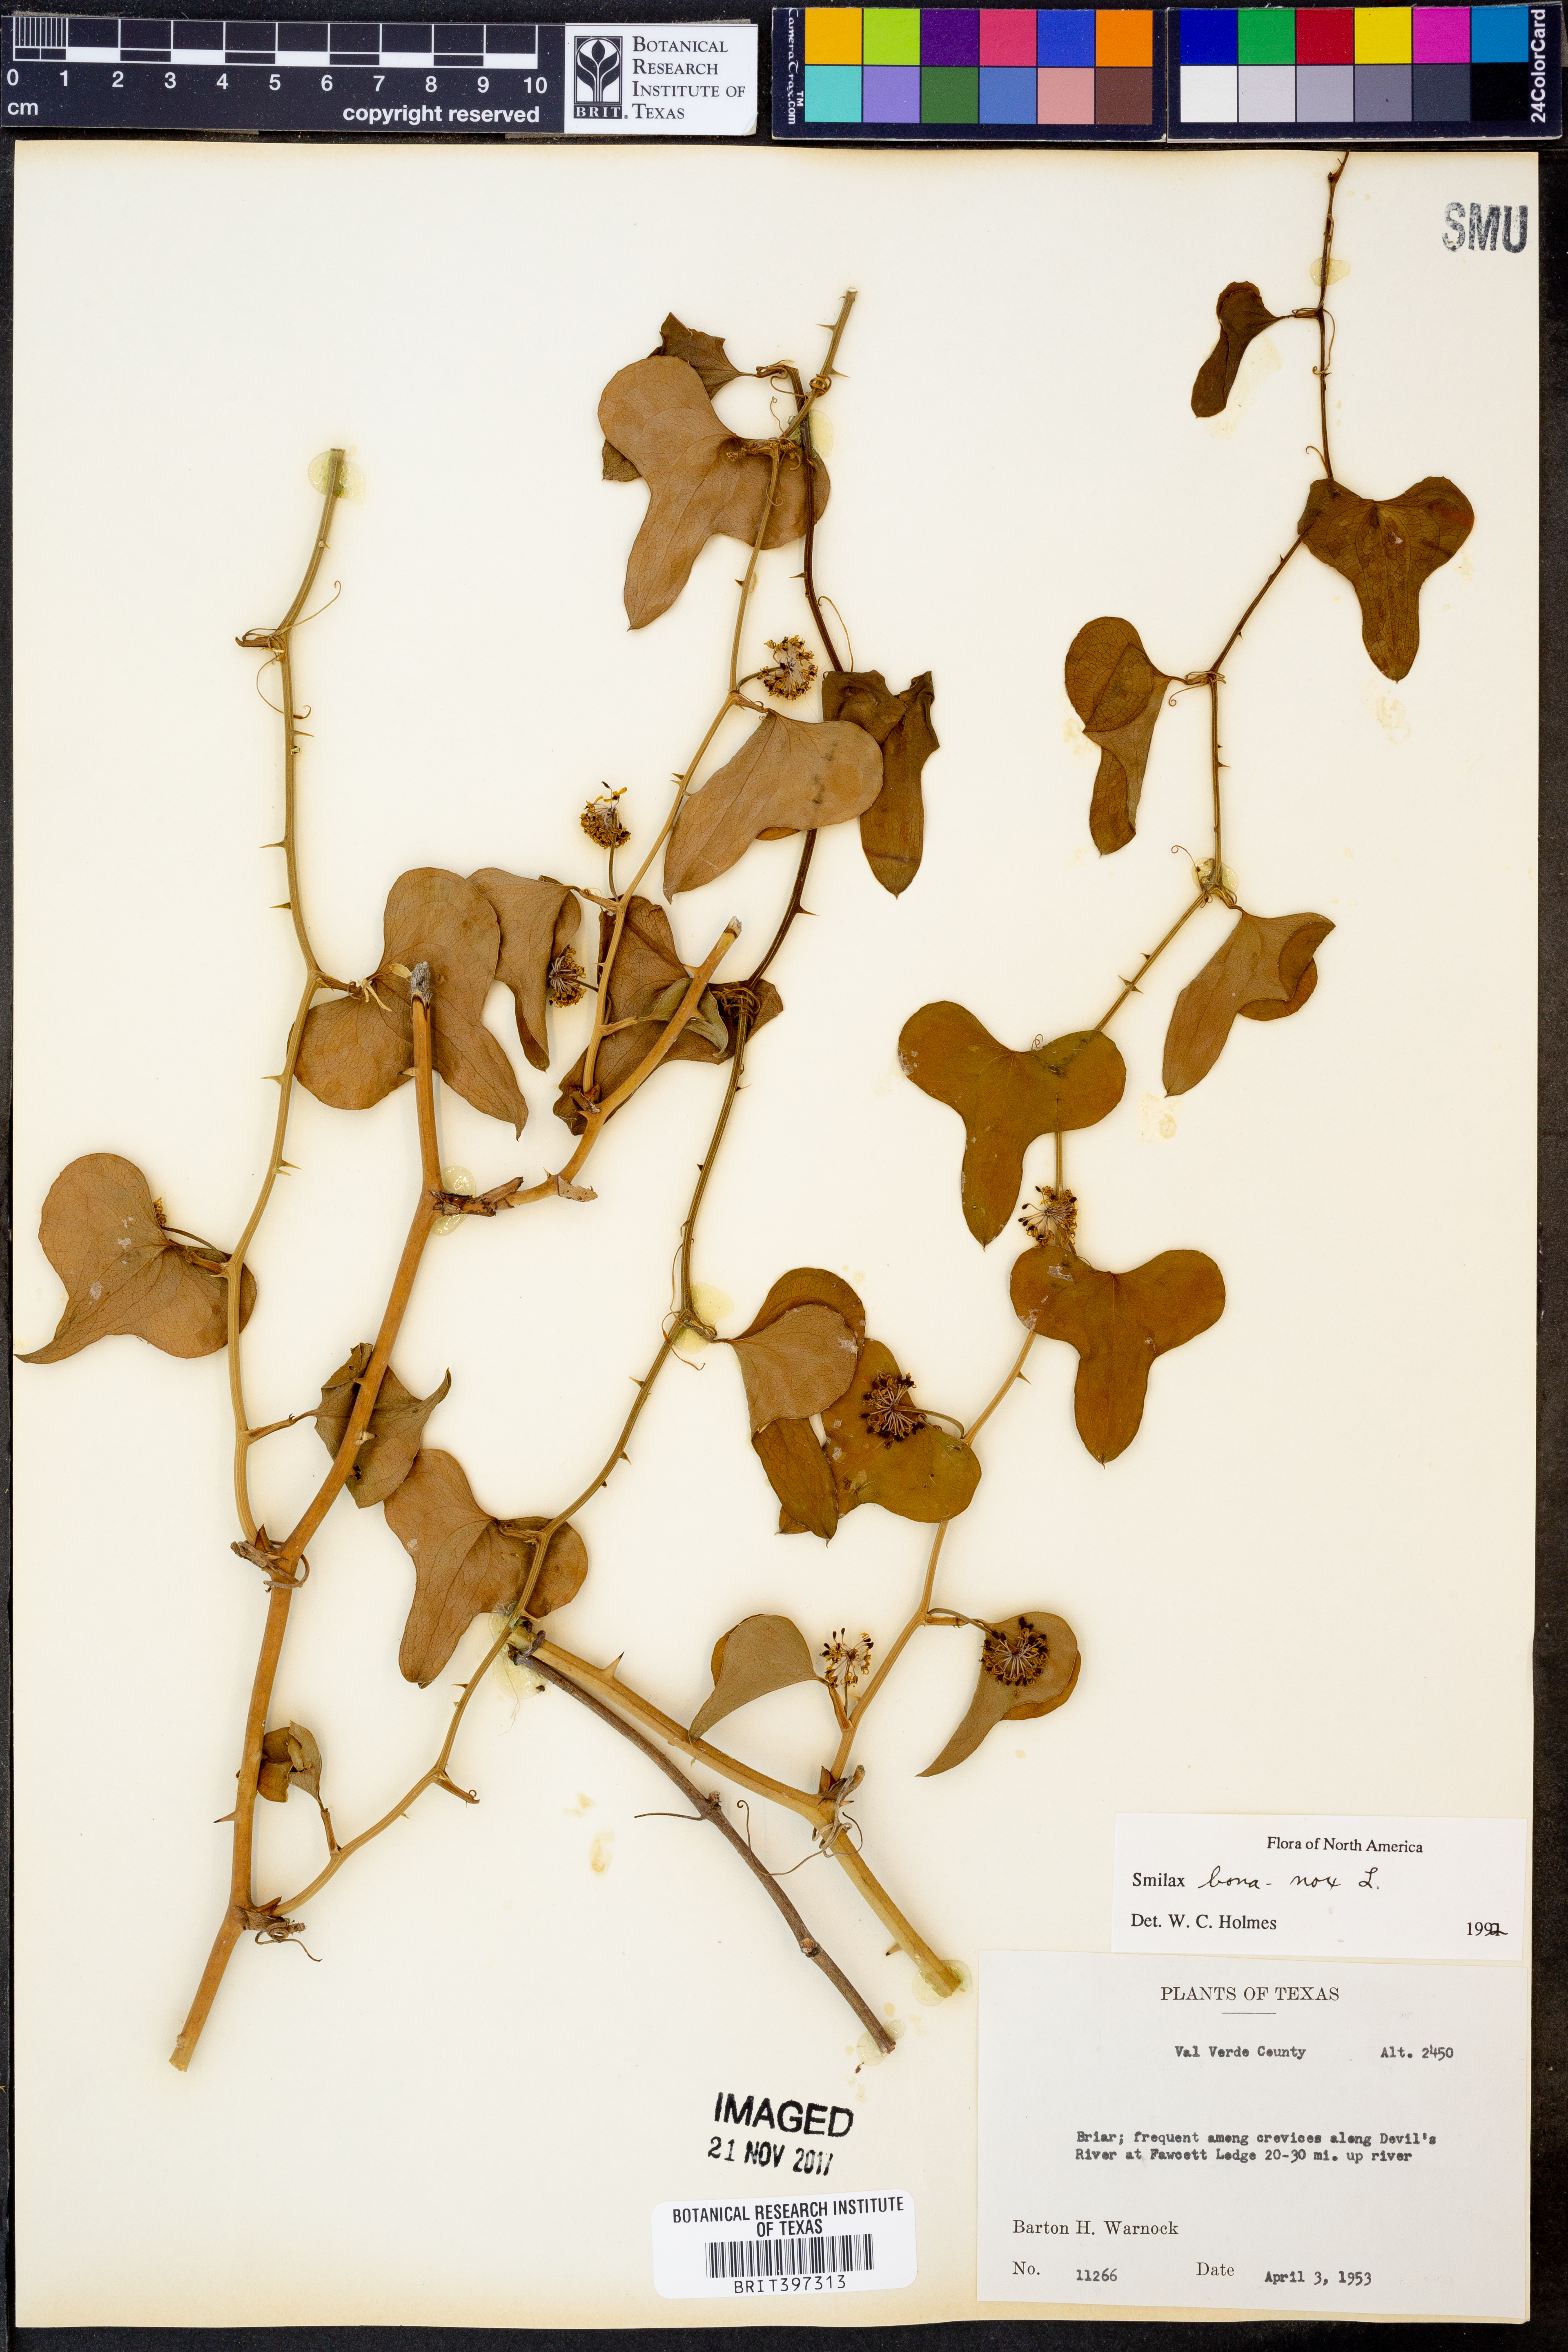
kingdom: Plantae
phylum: Tracheophyta
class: Liliopsida
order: Liliales
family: Smilacaceae
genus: Smilax
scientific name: Smilax bona-nox
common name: Catbrier
